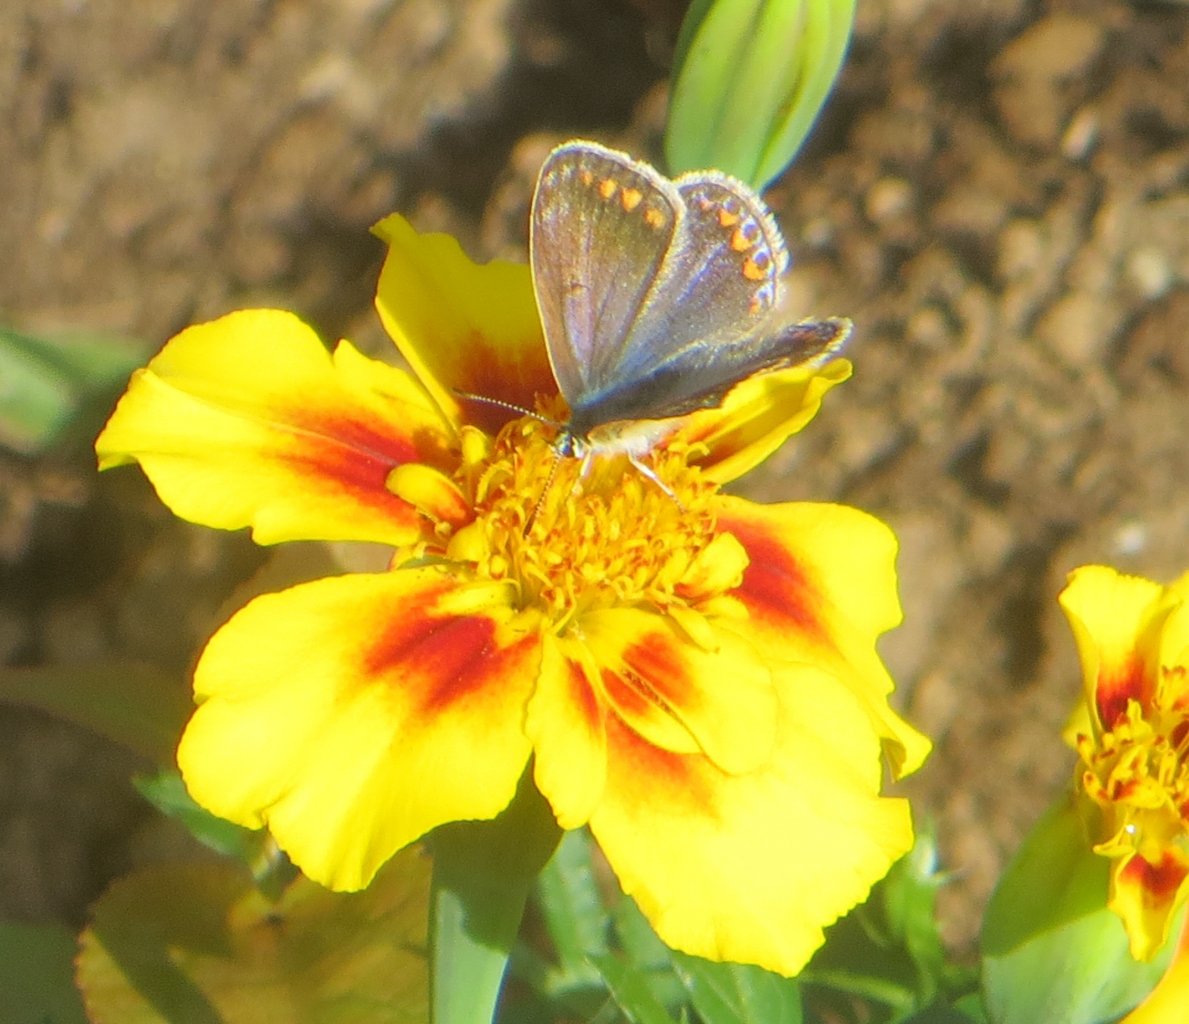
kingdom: Animalia
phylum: Arthropoda
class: Insecta
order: Lepidoptera
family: Lycaenidae
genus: Polyommatus
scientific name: Polyommatus icarus
